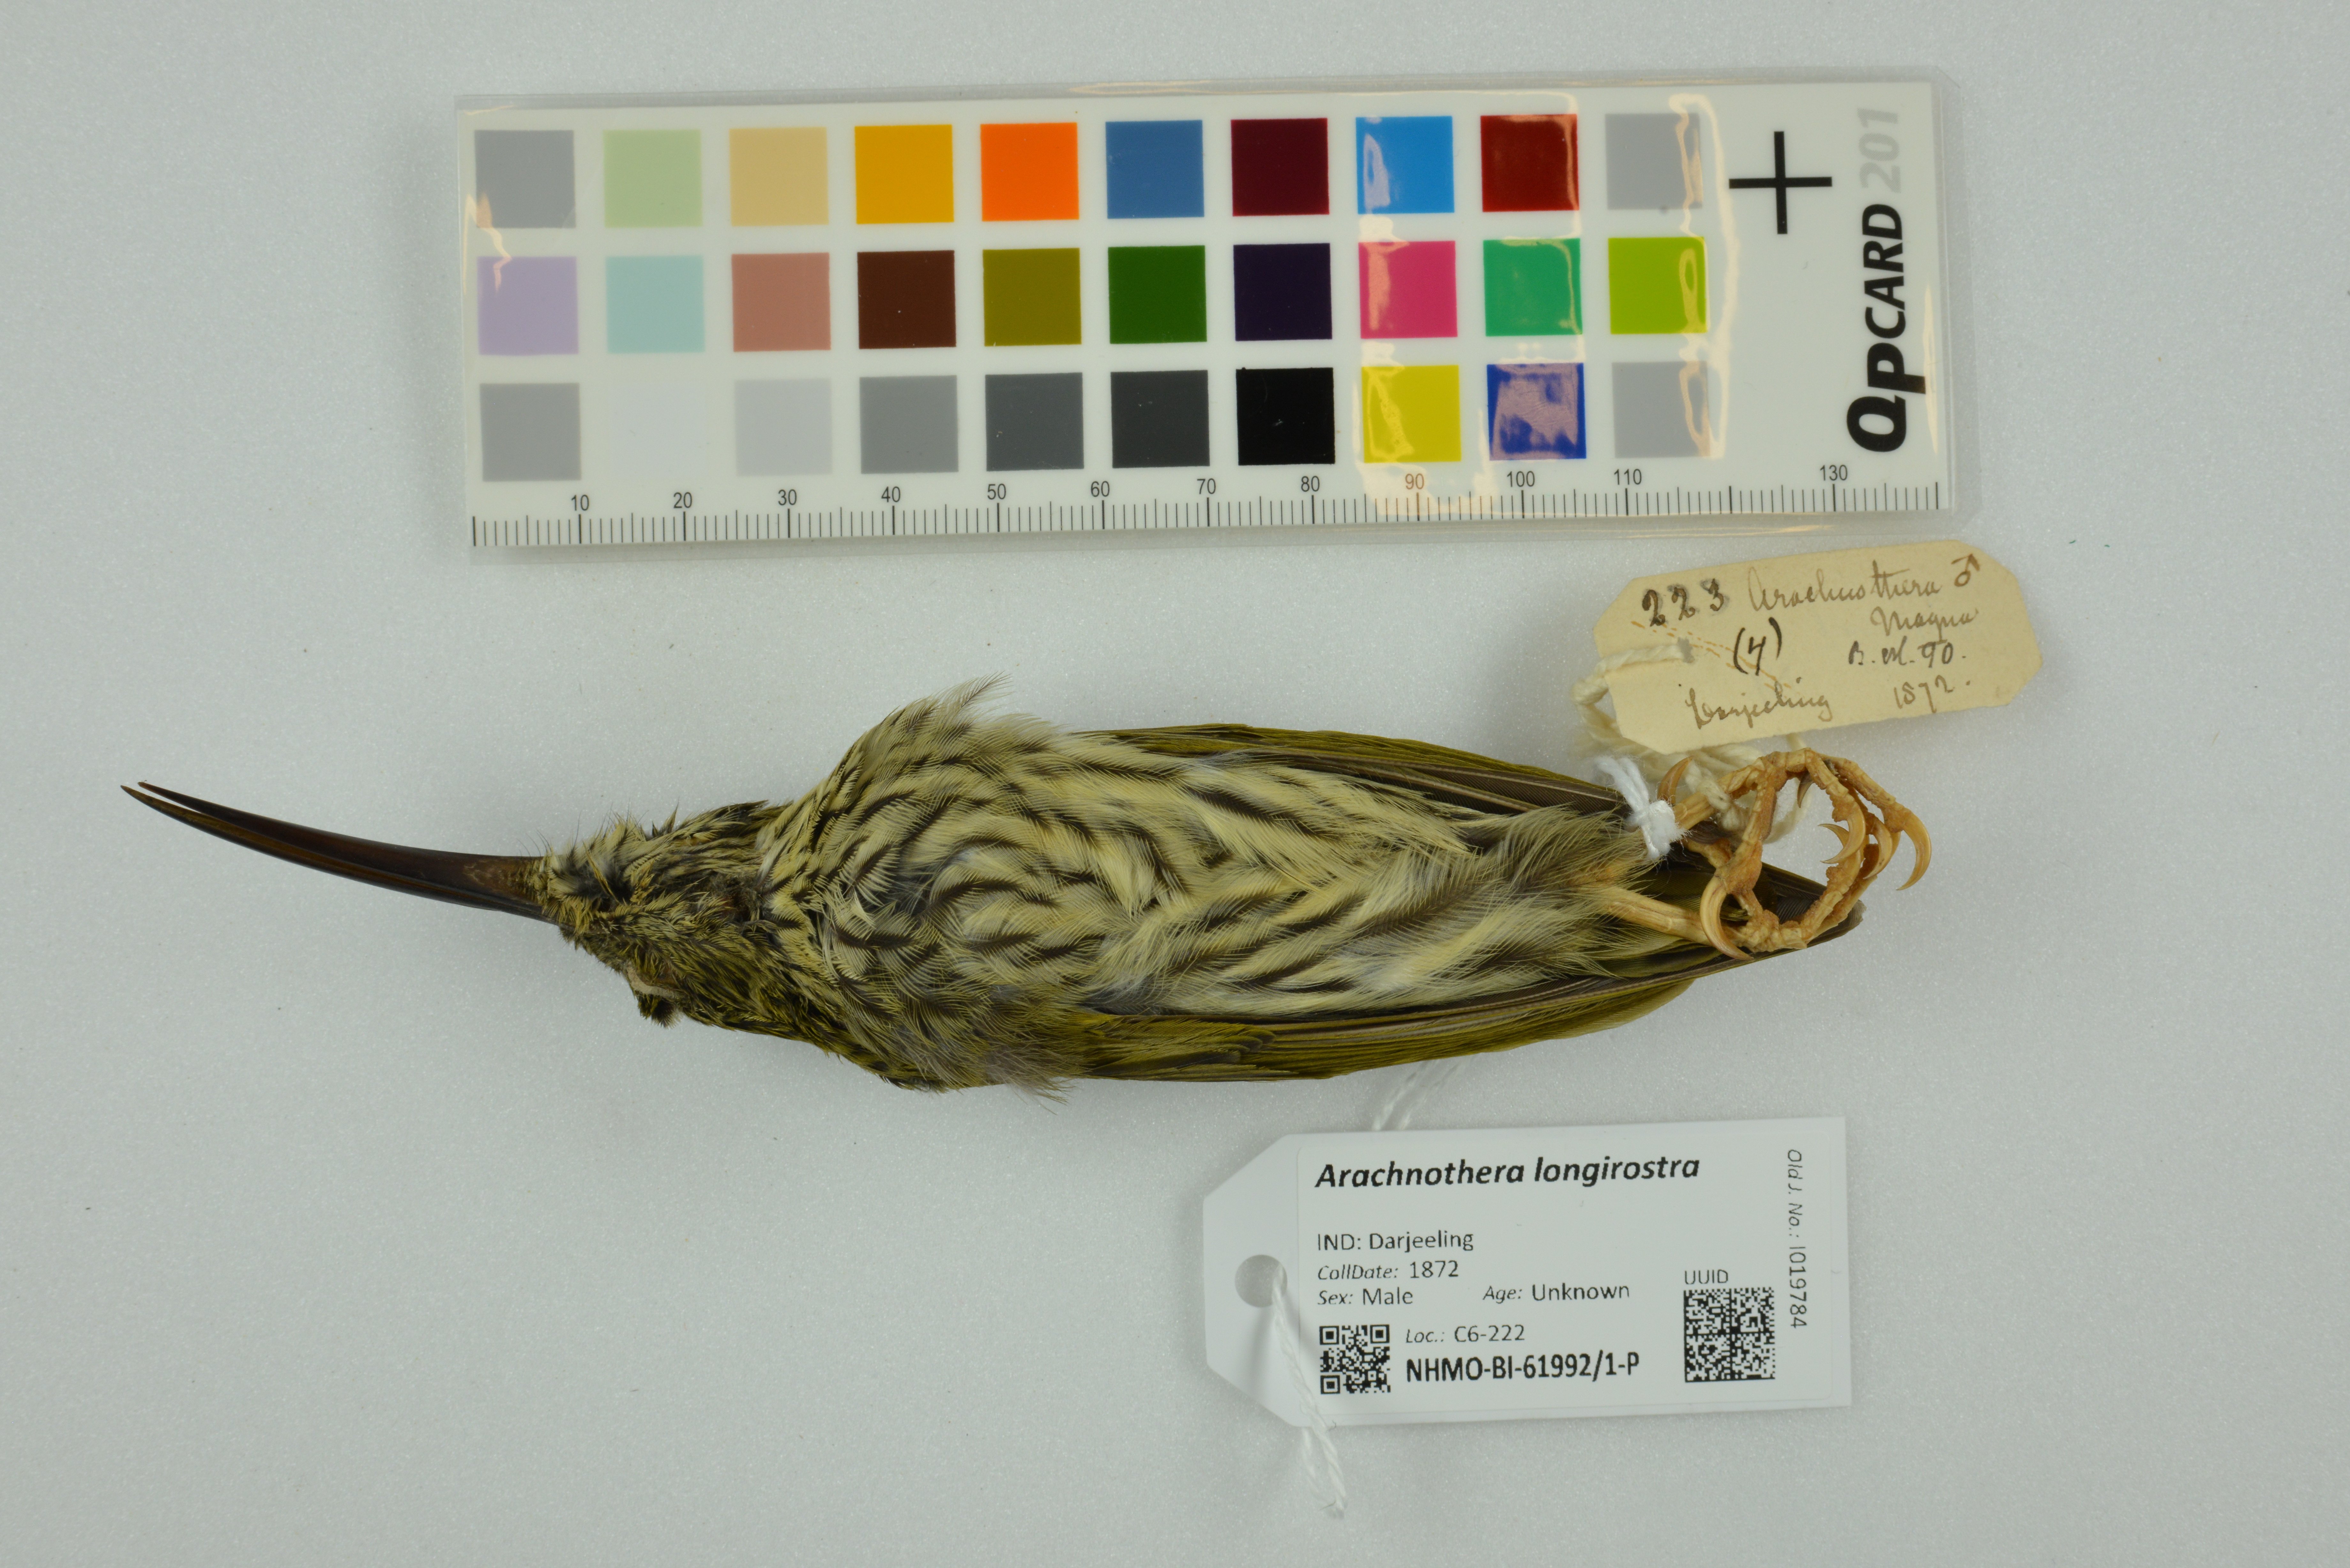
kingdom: Animalia
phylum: Chordata
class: Aves
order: Passeriformes
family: Nectariniidae
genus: Arachnothera
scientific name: Arachnothera longirostra
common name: Little spiderhunter
